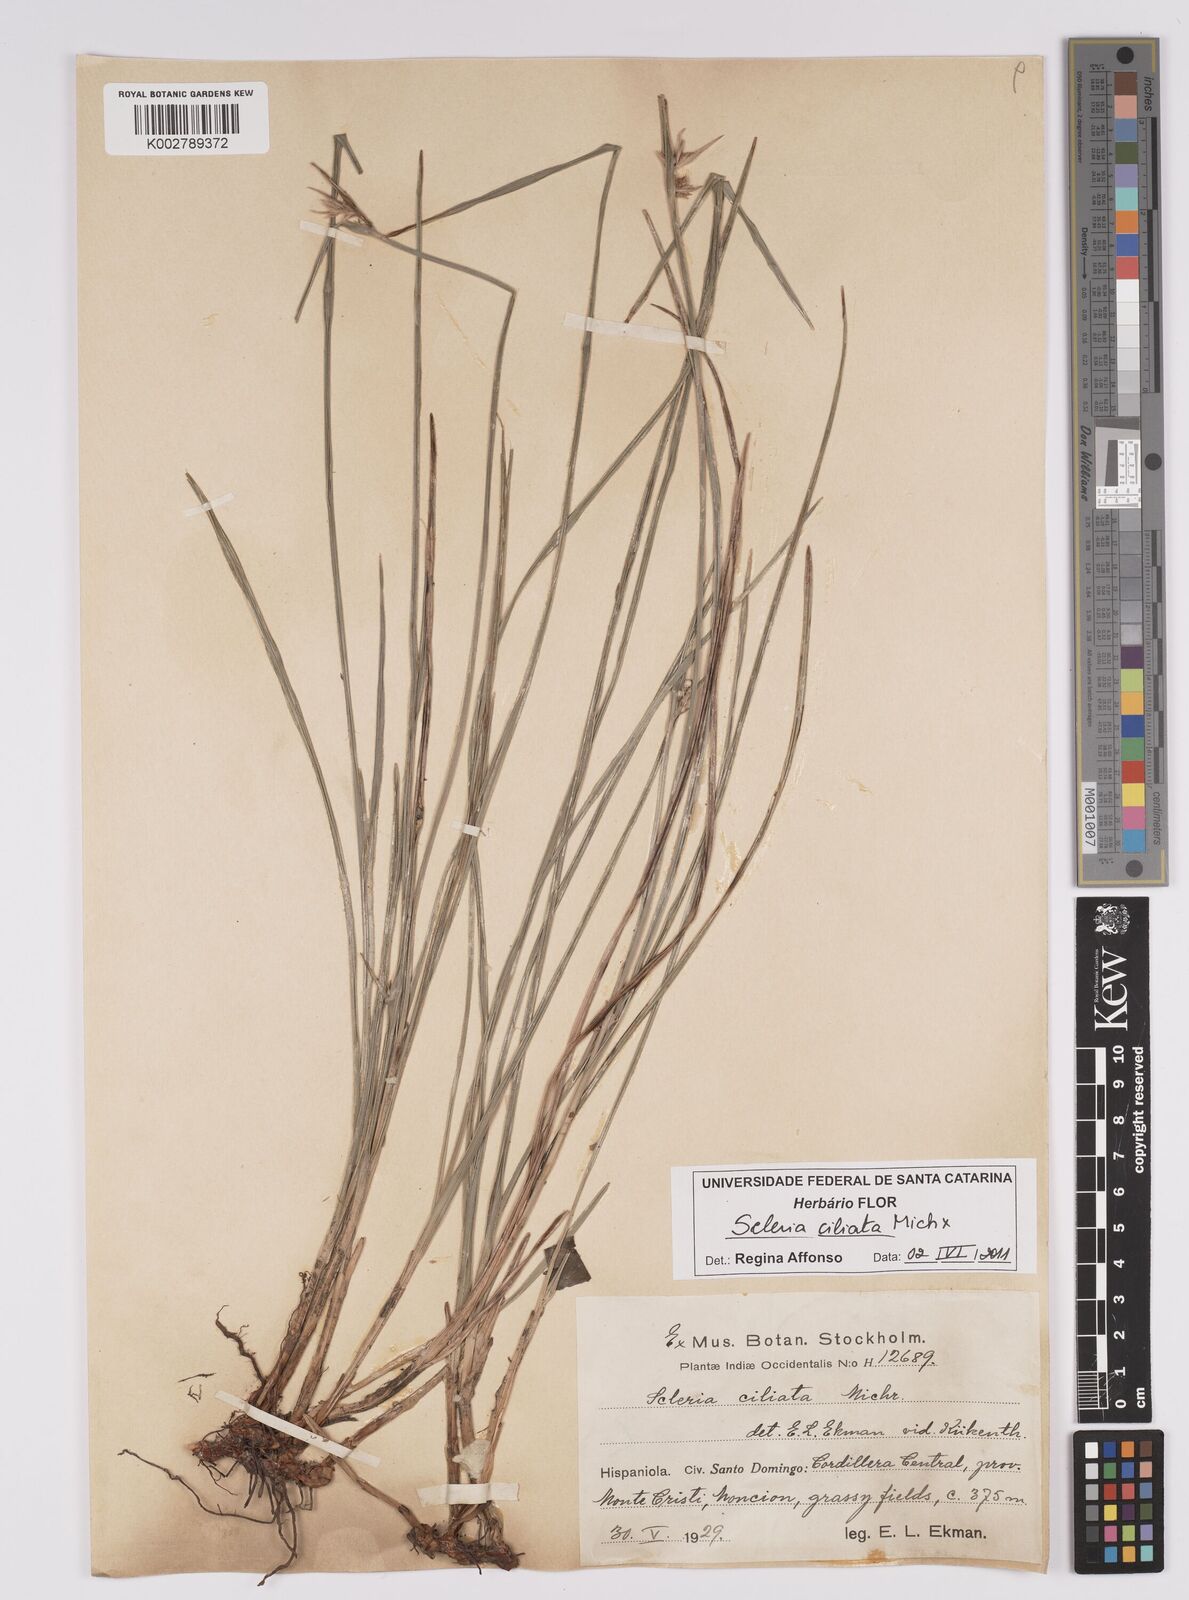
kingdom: Plantae
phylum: Tracheophyta
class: Liliopsida
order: Poales
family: Cyperaceae
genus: Scleria
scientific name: Scleria ciliata
